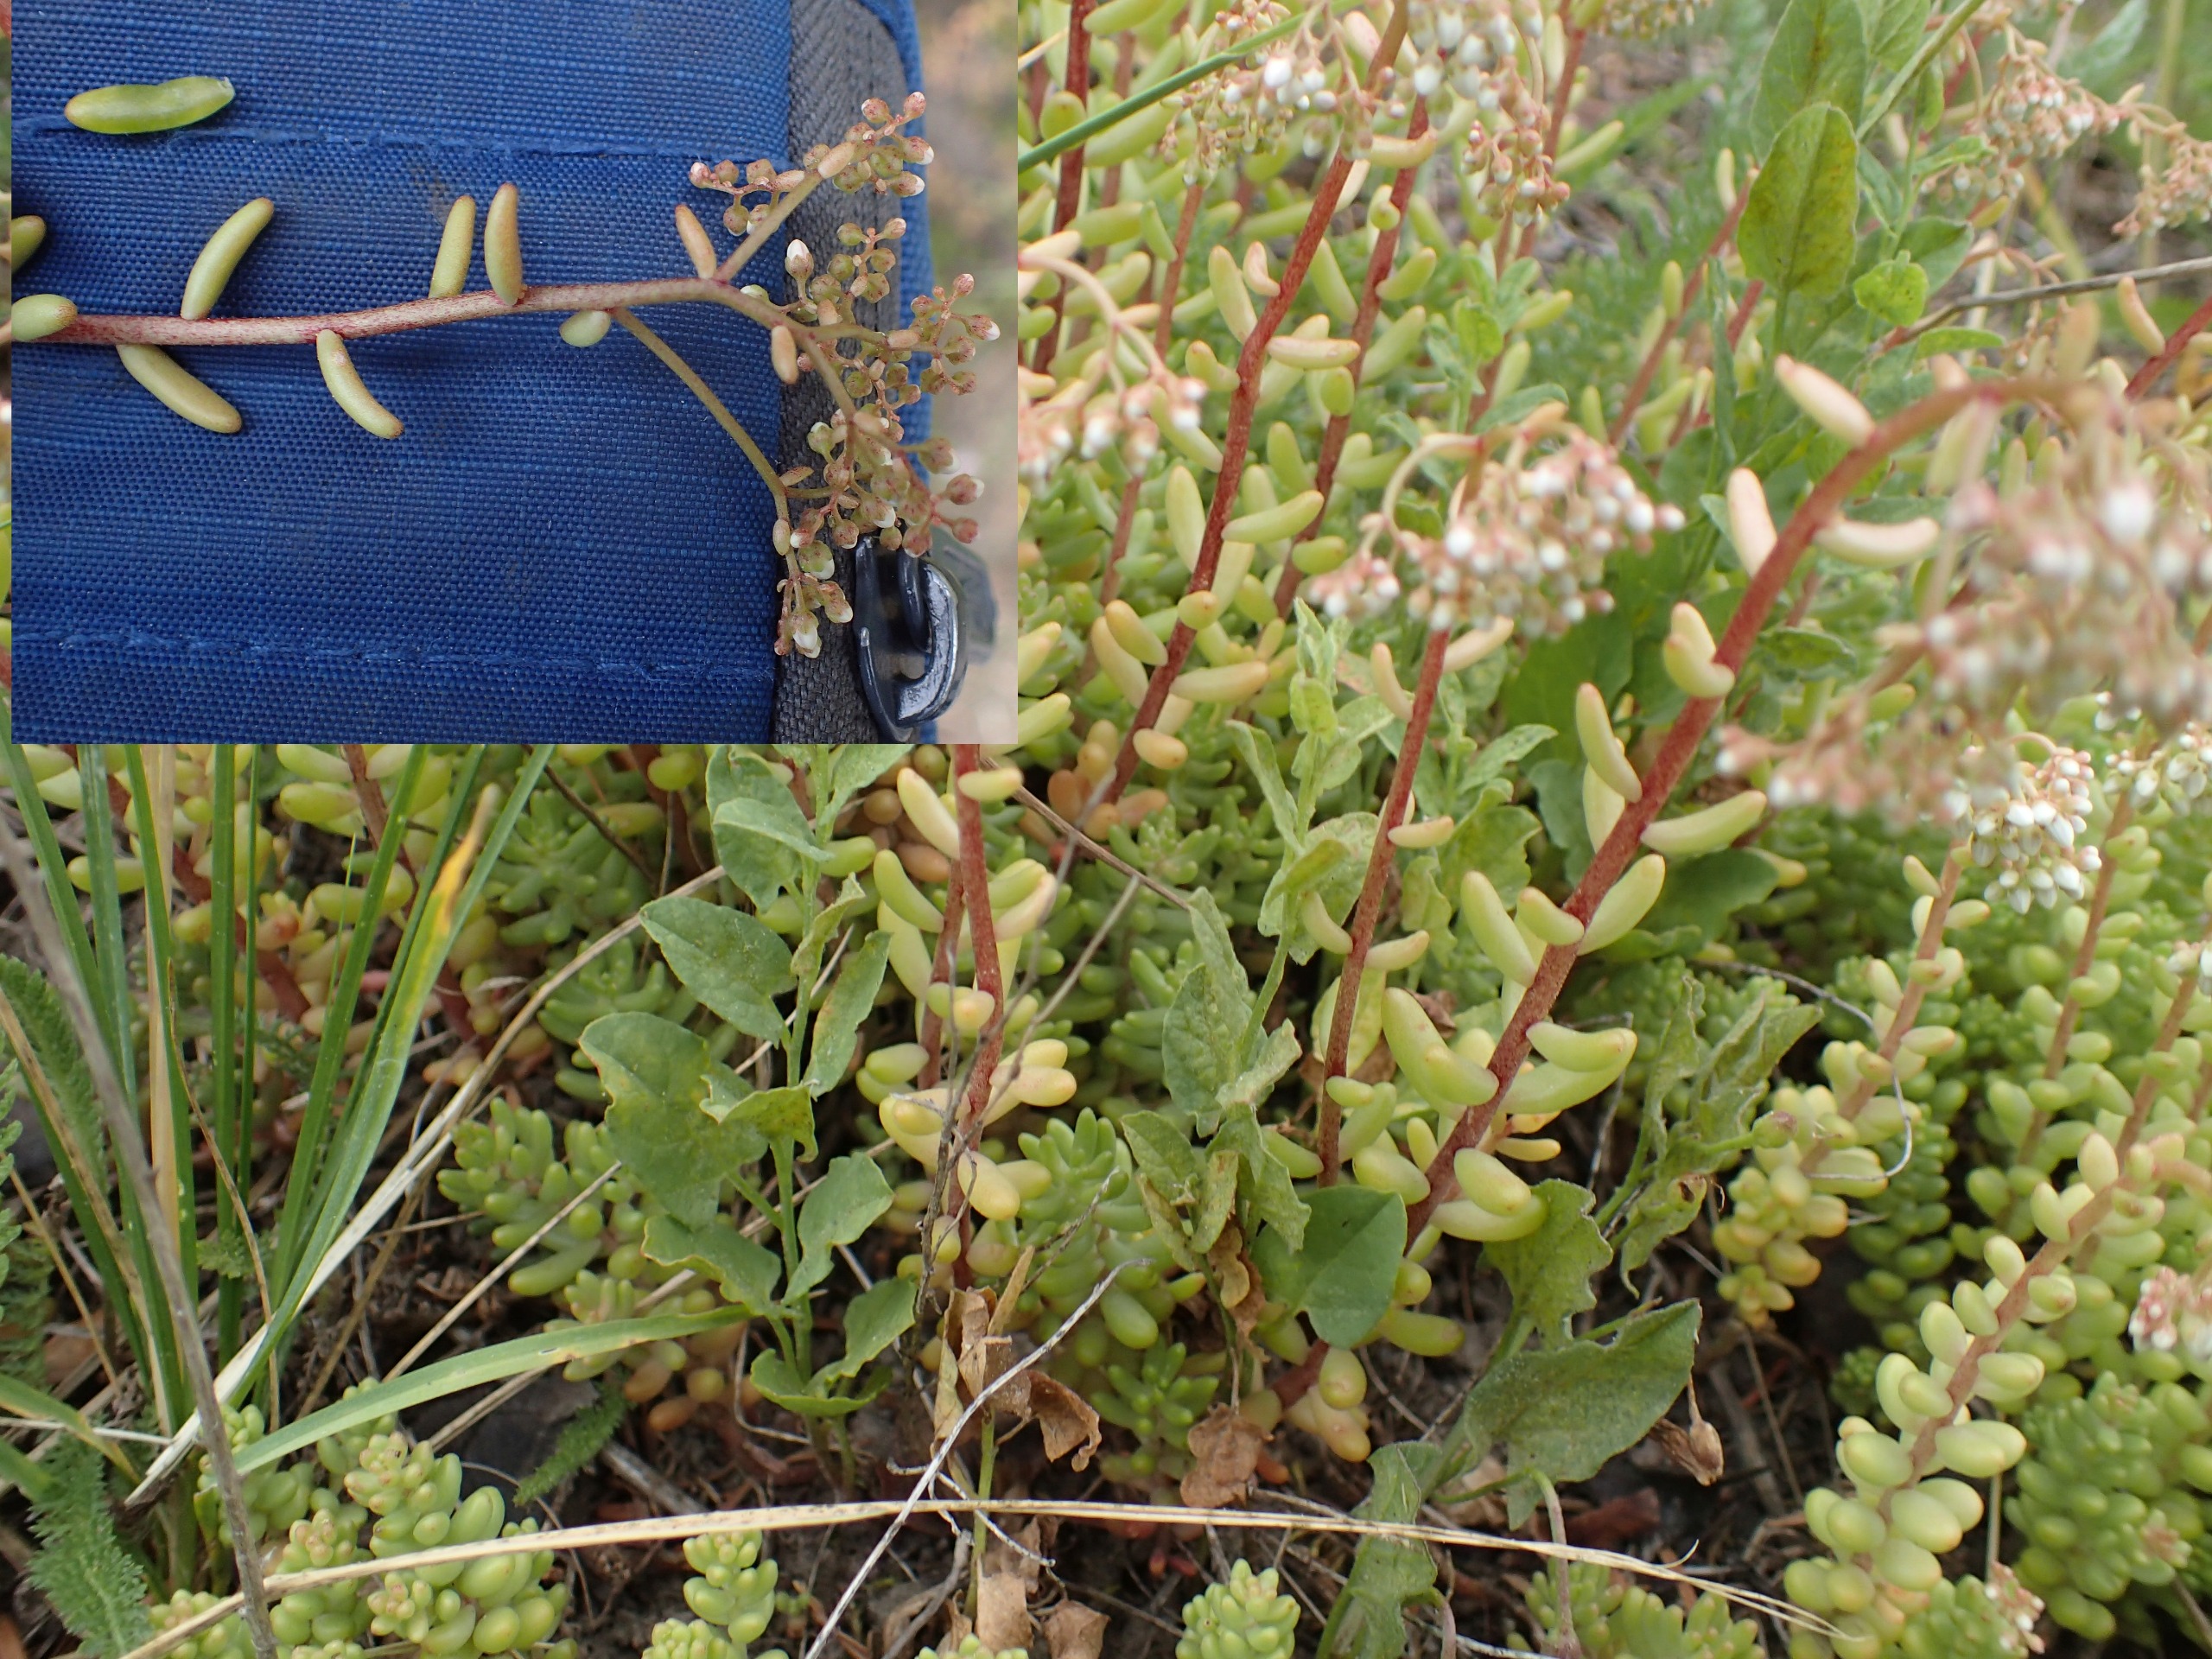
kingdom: Plantae
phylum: Tracheophyta
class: Magnoliopsida
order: Saxifragales
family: Crassulaceae
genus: Sedum
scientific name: Sedum album
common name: Hvid stenurt
